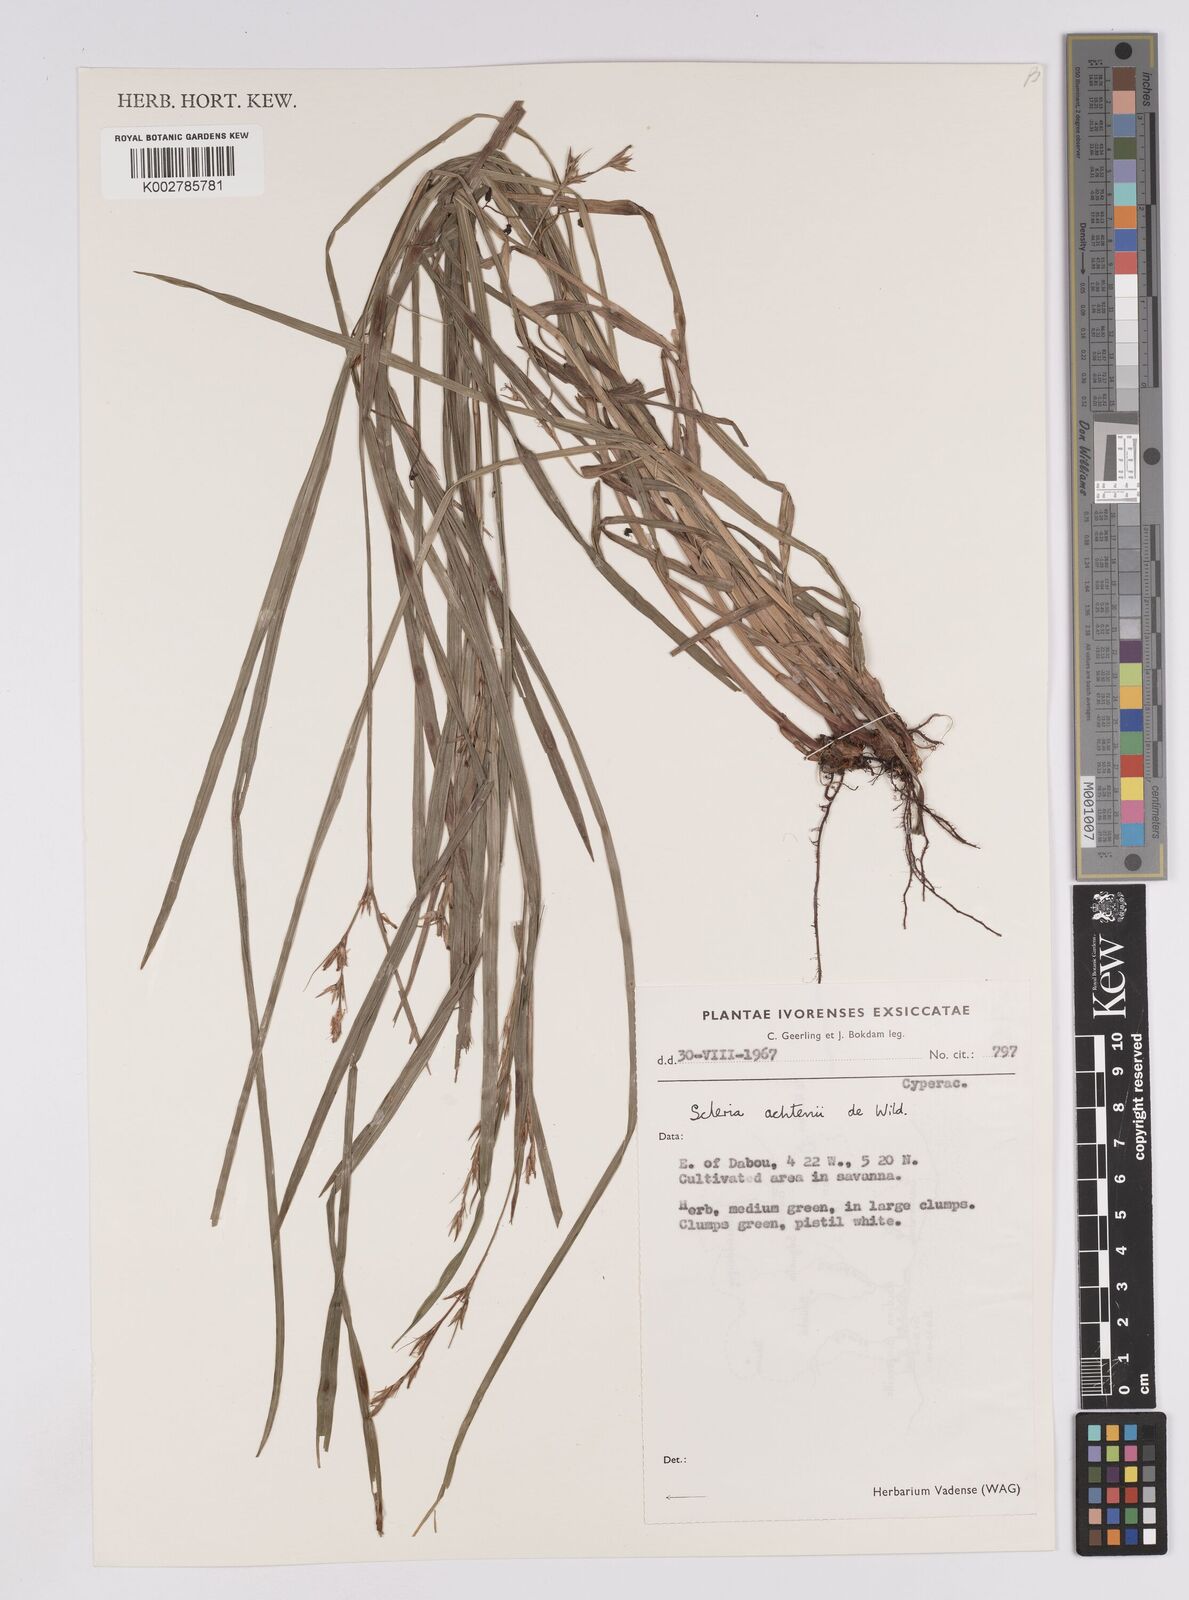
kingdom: Plantae
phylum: Tracheophyta
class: Liliopsida
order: Poales
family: Cyperaceae
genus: Scleria
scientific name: Scleria achtenii
